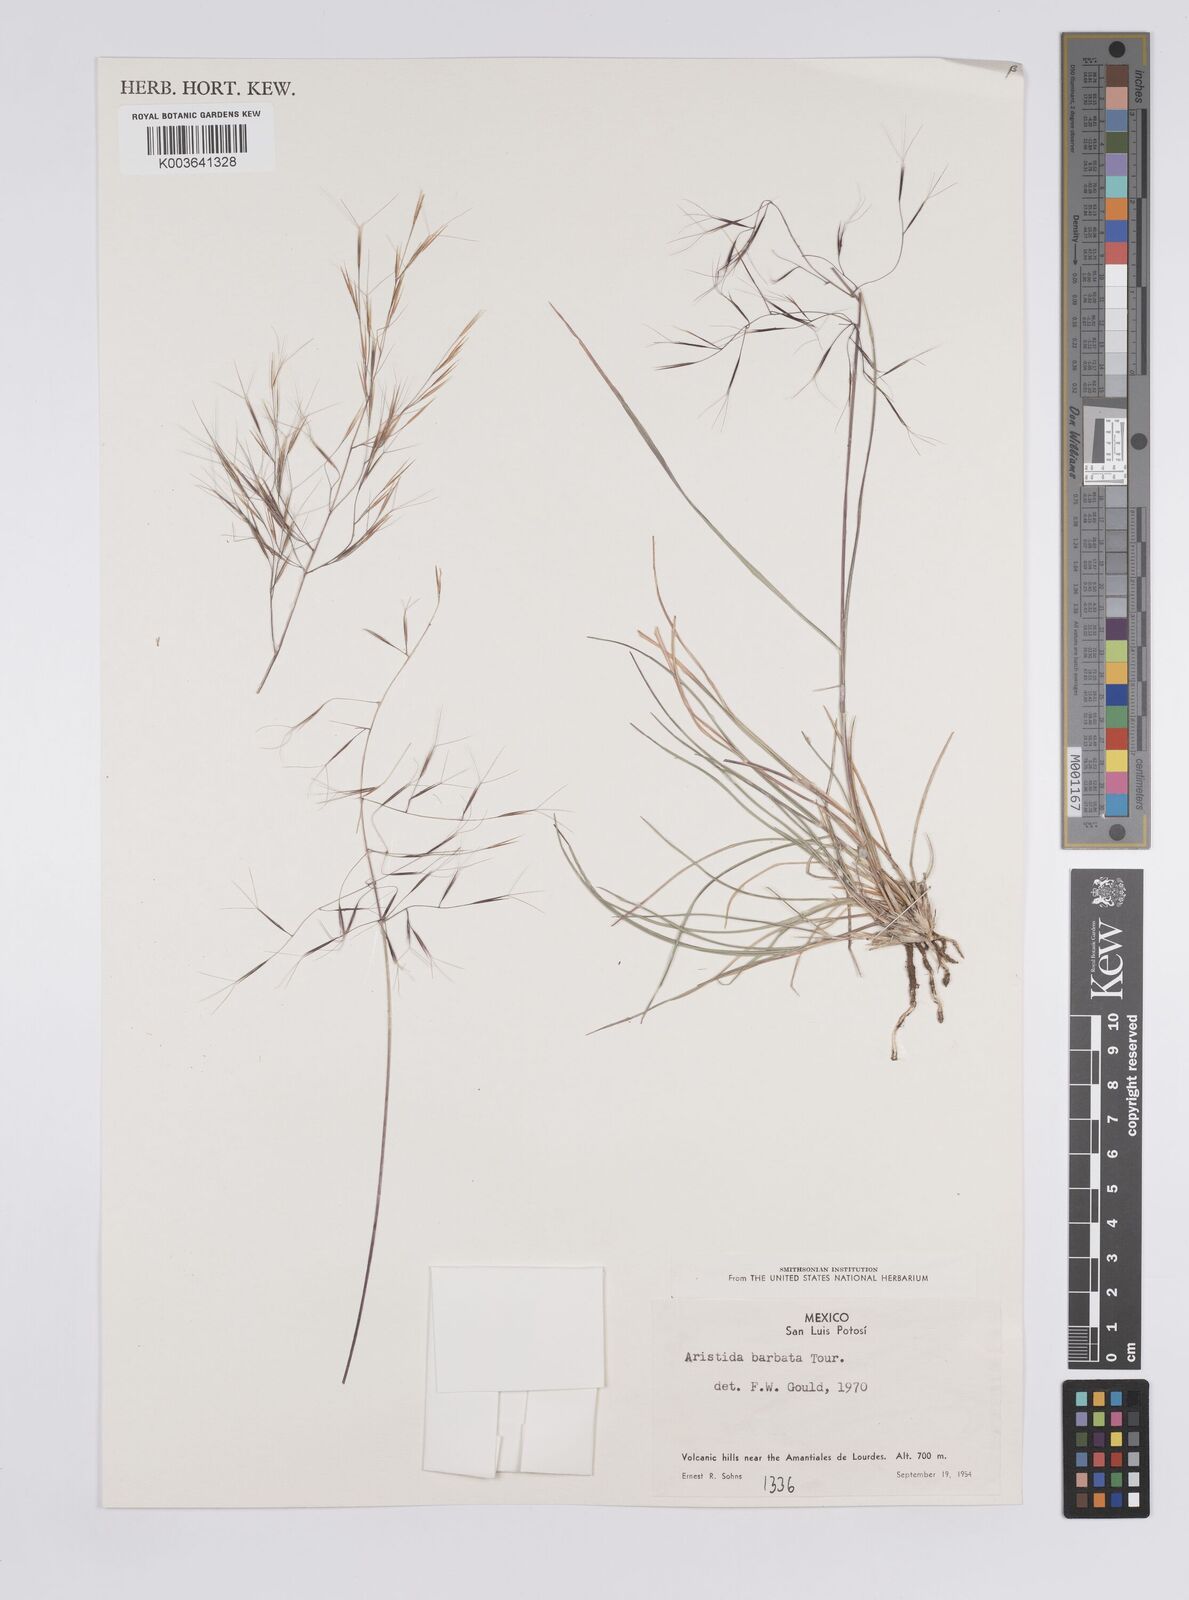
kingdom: Plantae
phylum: Tracheophyta
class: Liliopsida
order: Poales
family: Poaceae
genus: Aristida
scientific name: Aristida havardii
